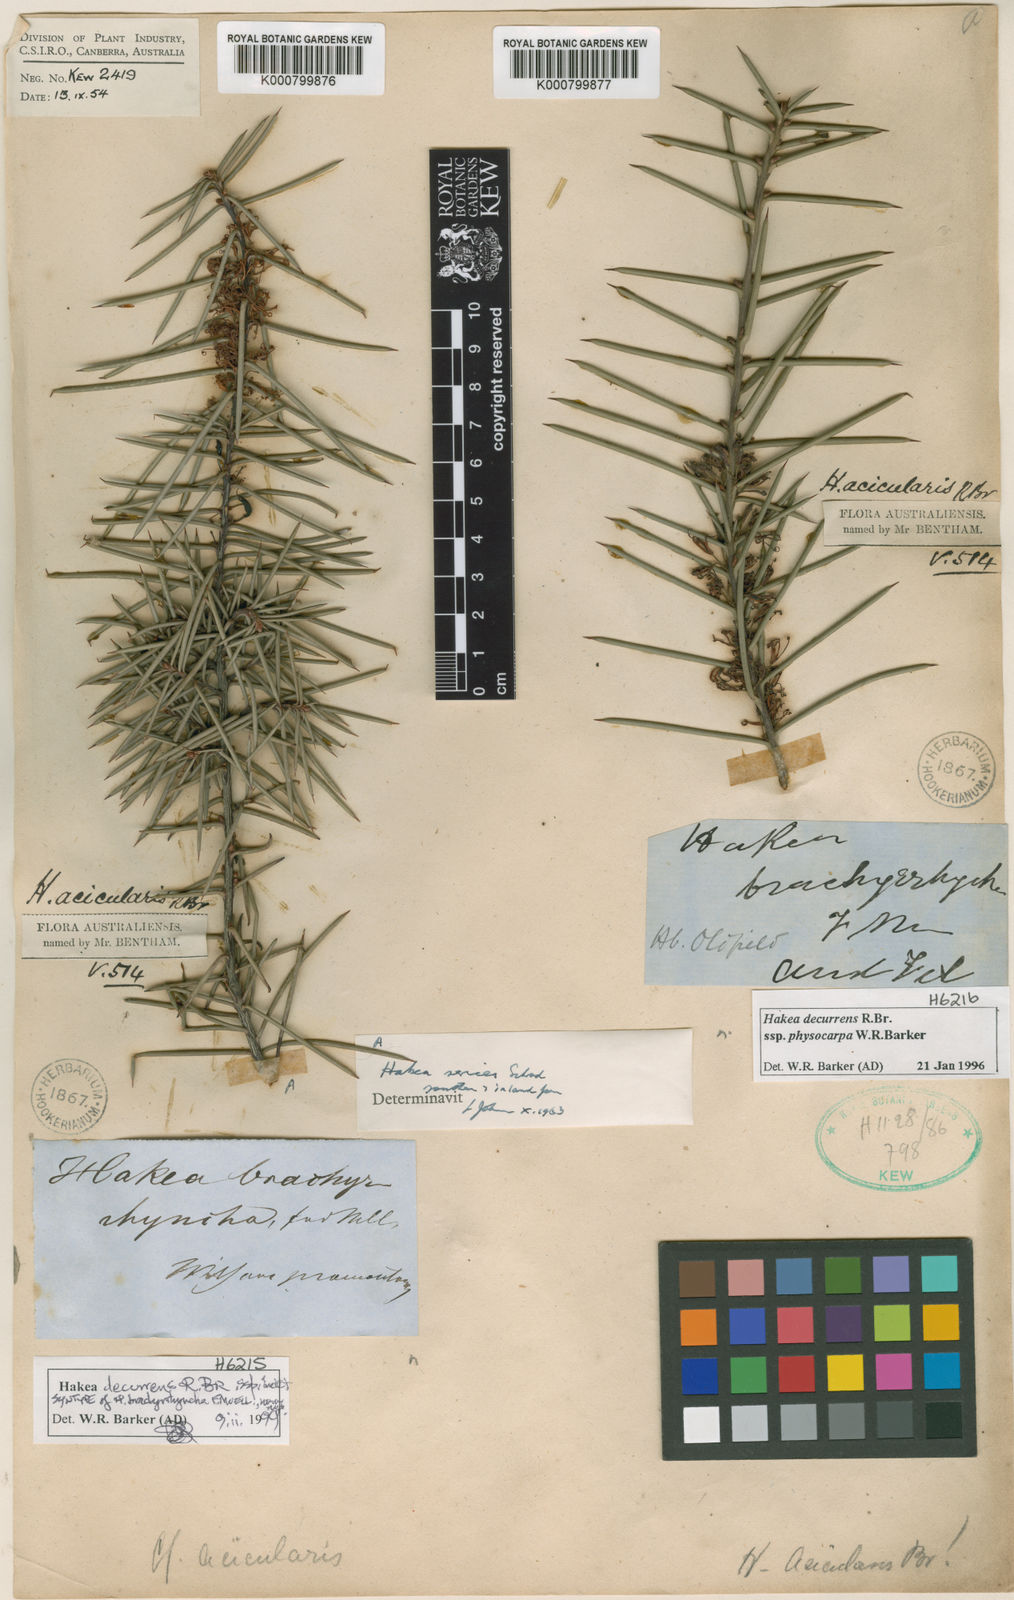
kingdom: Plantae
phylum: Tracheophyta
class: Magnoliopsida
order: Proteales
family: Proteaceae
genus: Hakea
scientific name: Hakea sericea
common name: Needle bush
